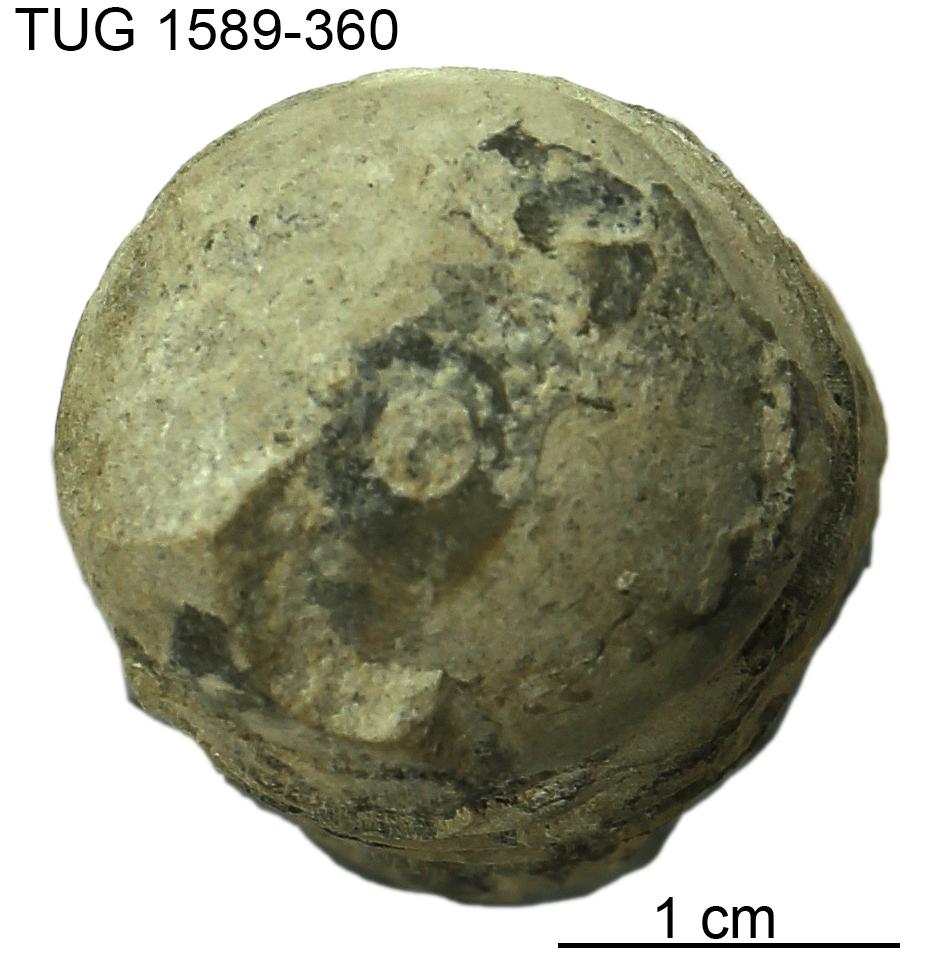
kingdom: Animalia
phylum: Mollusca
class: Cephalopoda
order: Orthocerida
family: Dawsonoceratidae
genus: Palaeodawsonocerina
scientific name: Palaeodawsonocerina Spyroceras senckenbergi
